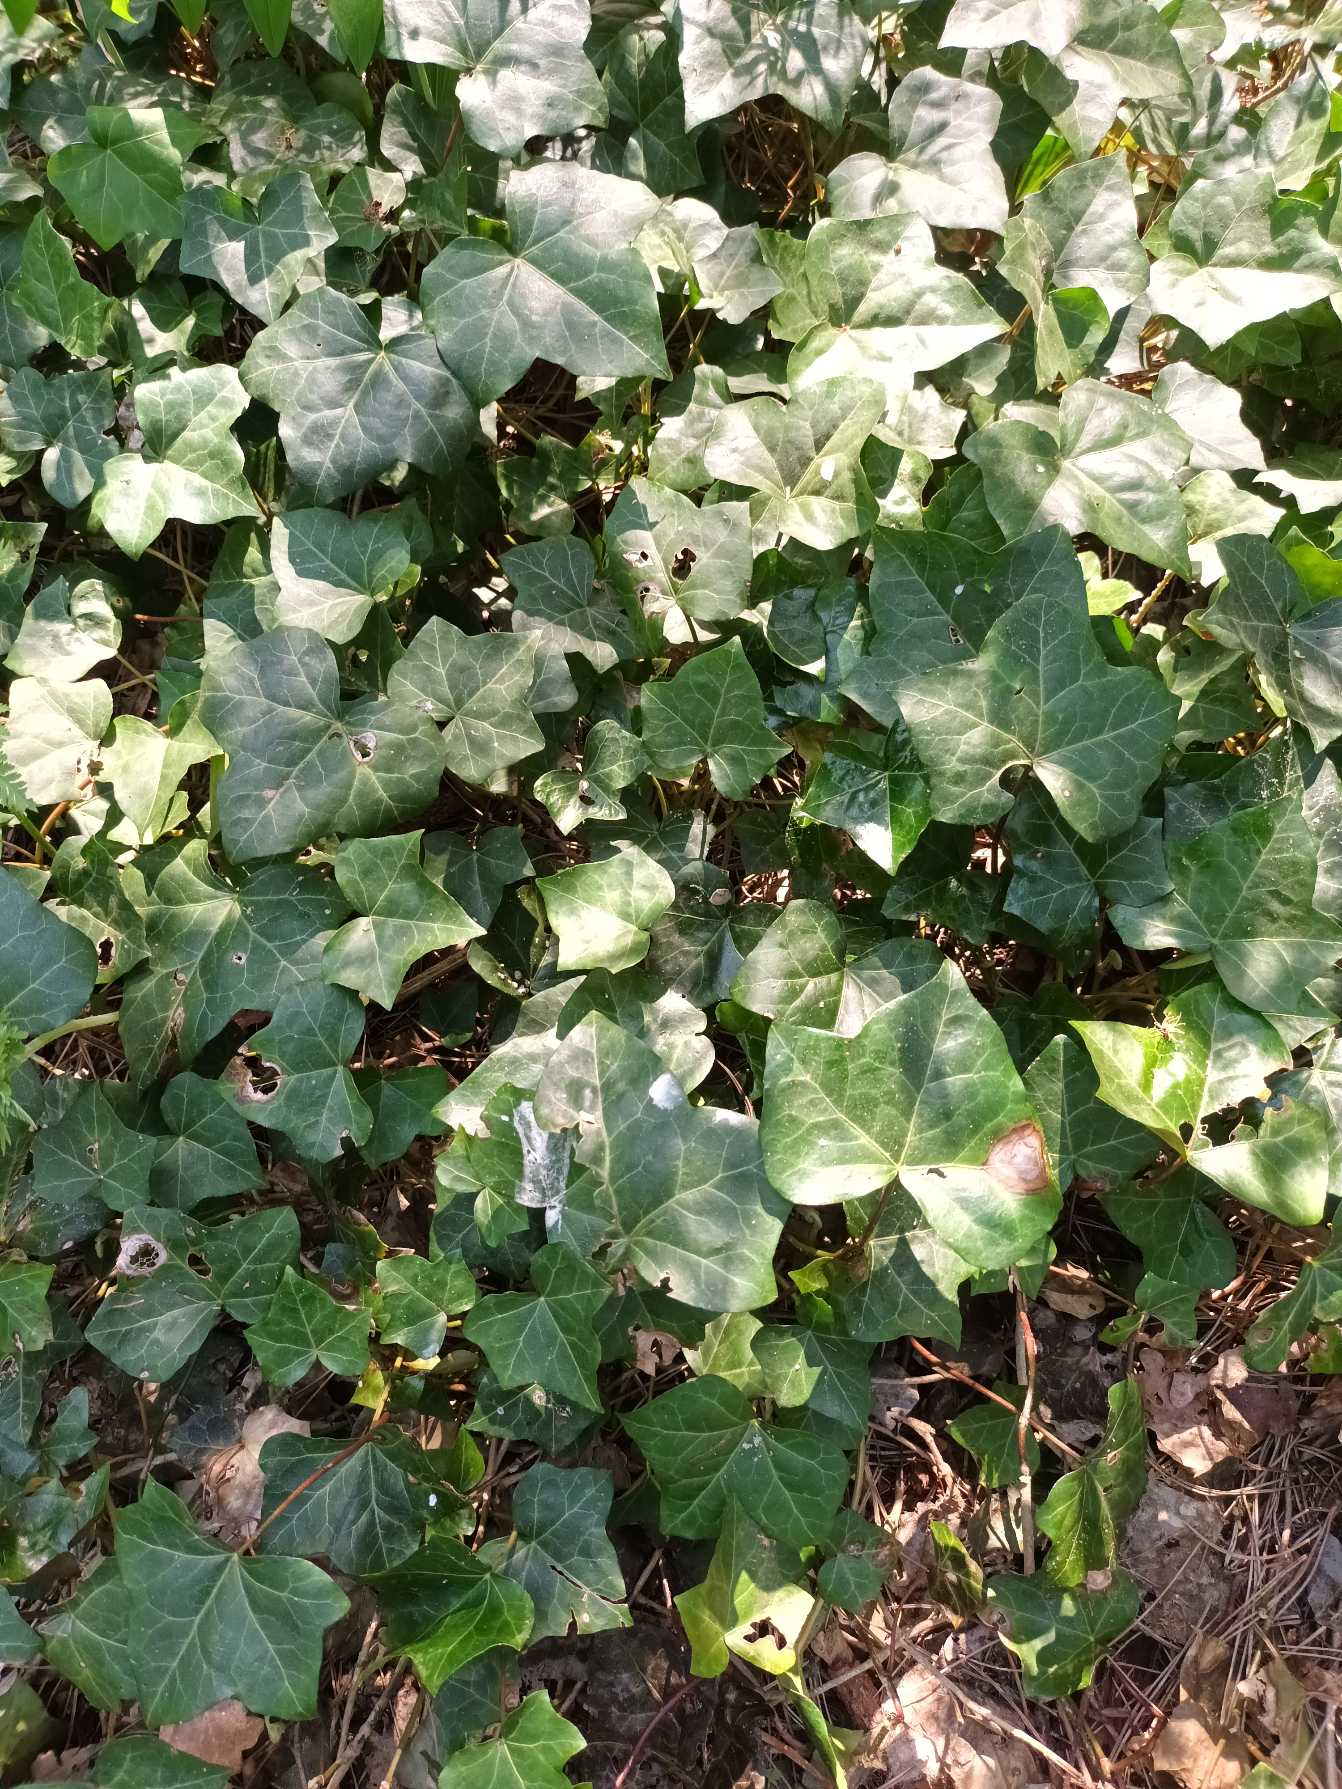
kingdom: Plantae
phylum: Tracheophyta
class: Magnoliopsida
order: Apiales
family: Araliaceae
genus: Hedera
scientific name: Hedera hibernica
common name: Irsk vedbend
